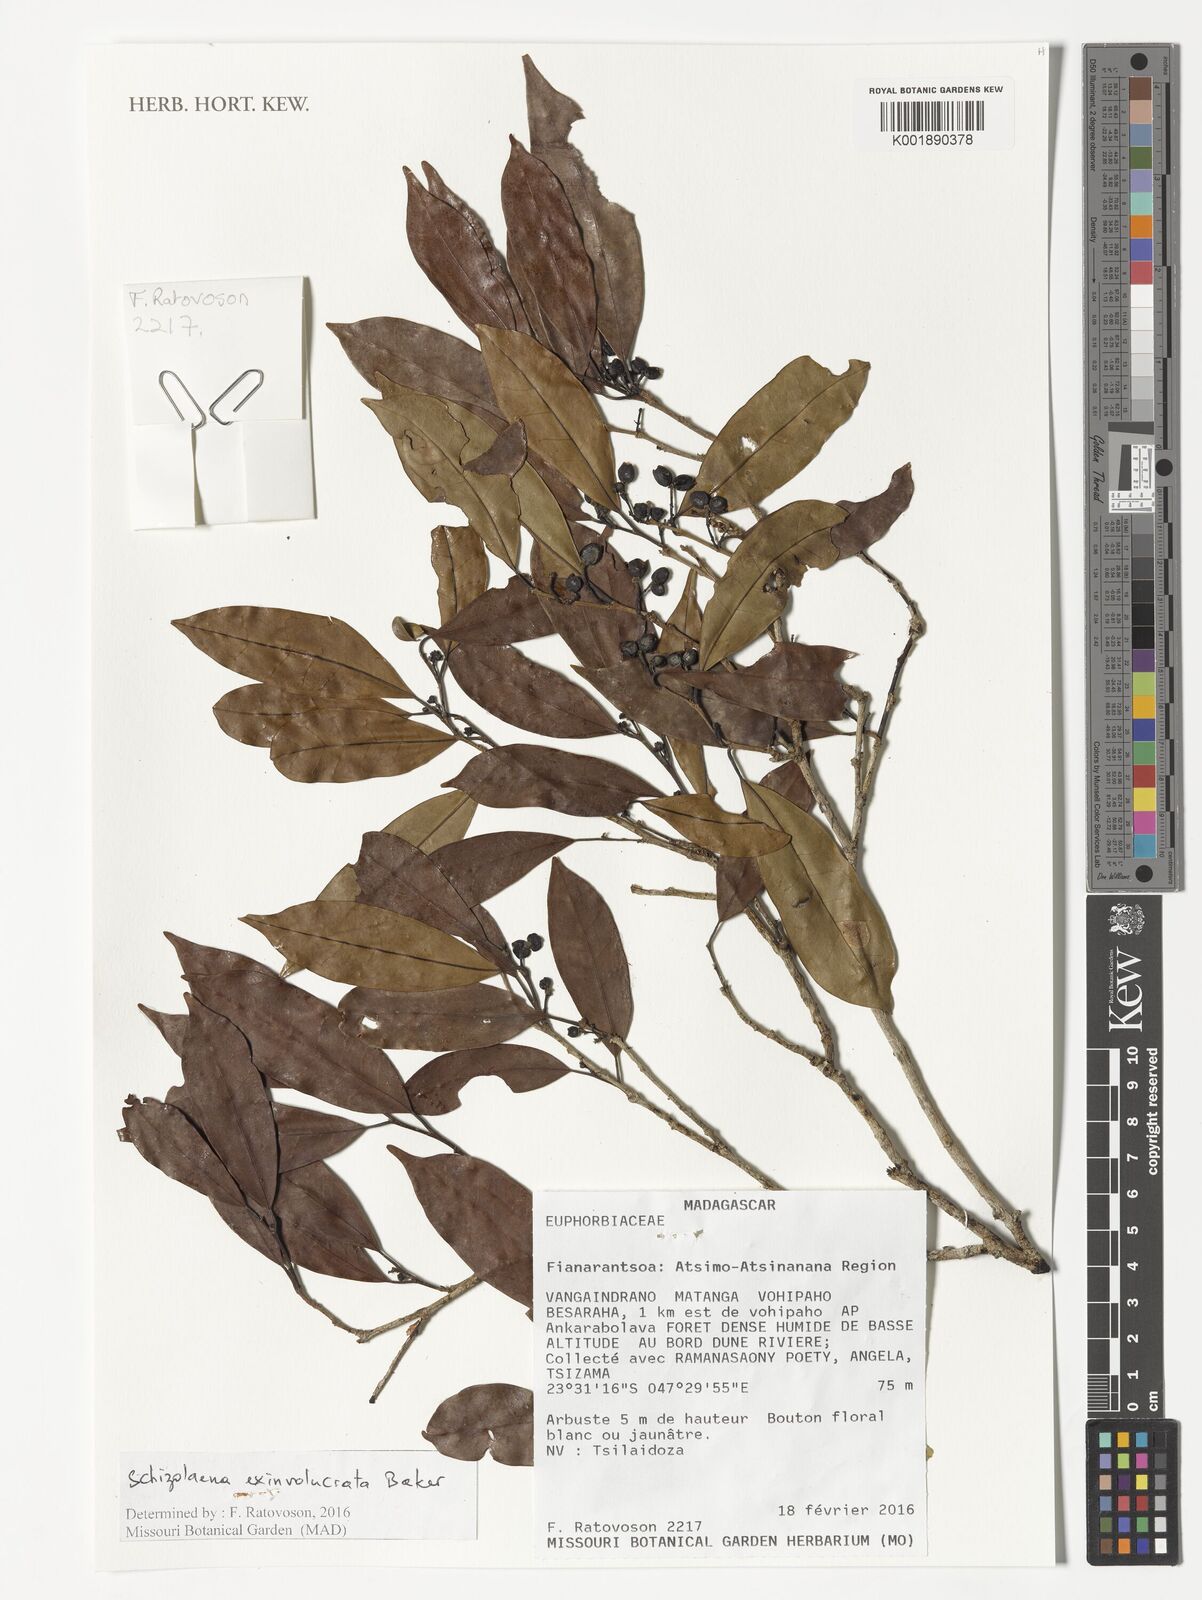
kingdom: Plantae
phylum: Tracheophyta
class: Magnoliopsida
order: Malvales
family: Sarcolaenaceae
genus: Schizolaena
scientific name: Schizolaena exinvolucrata
